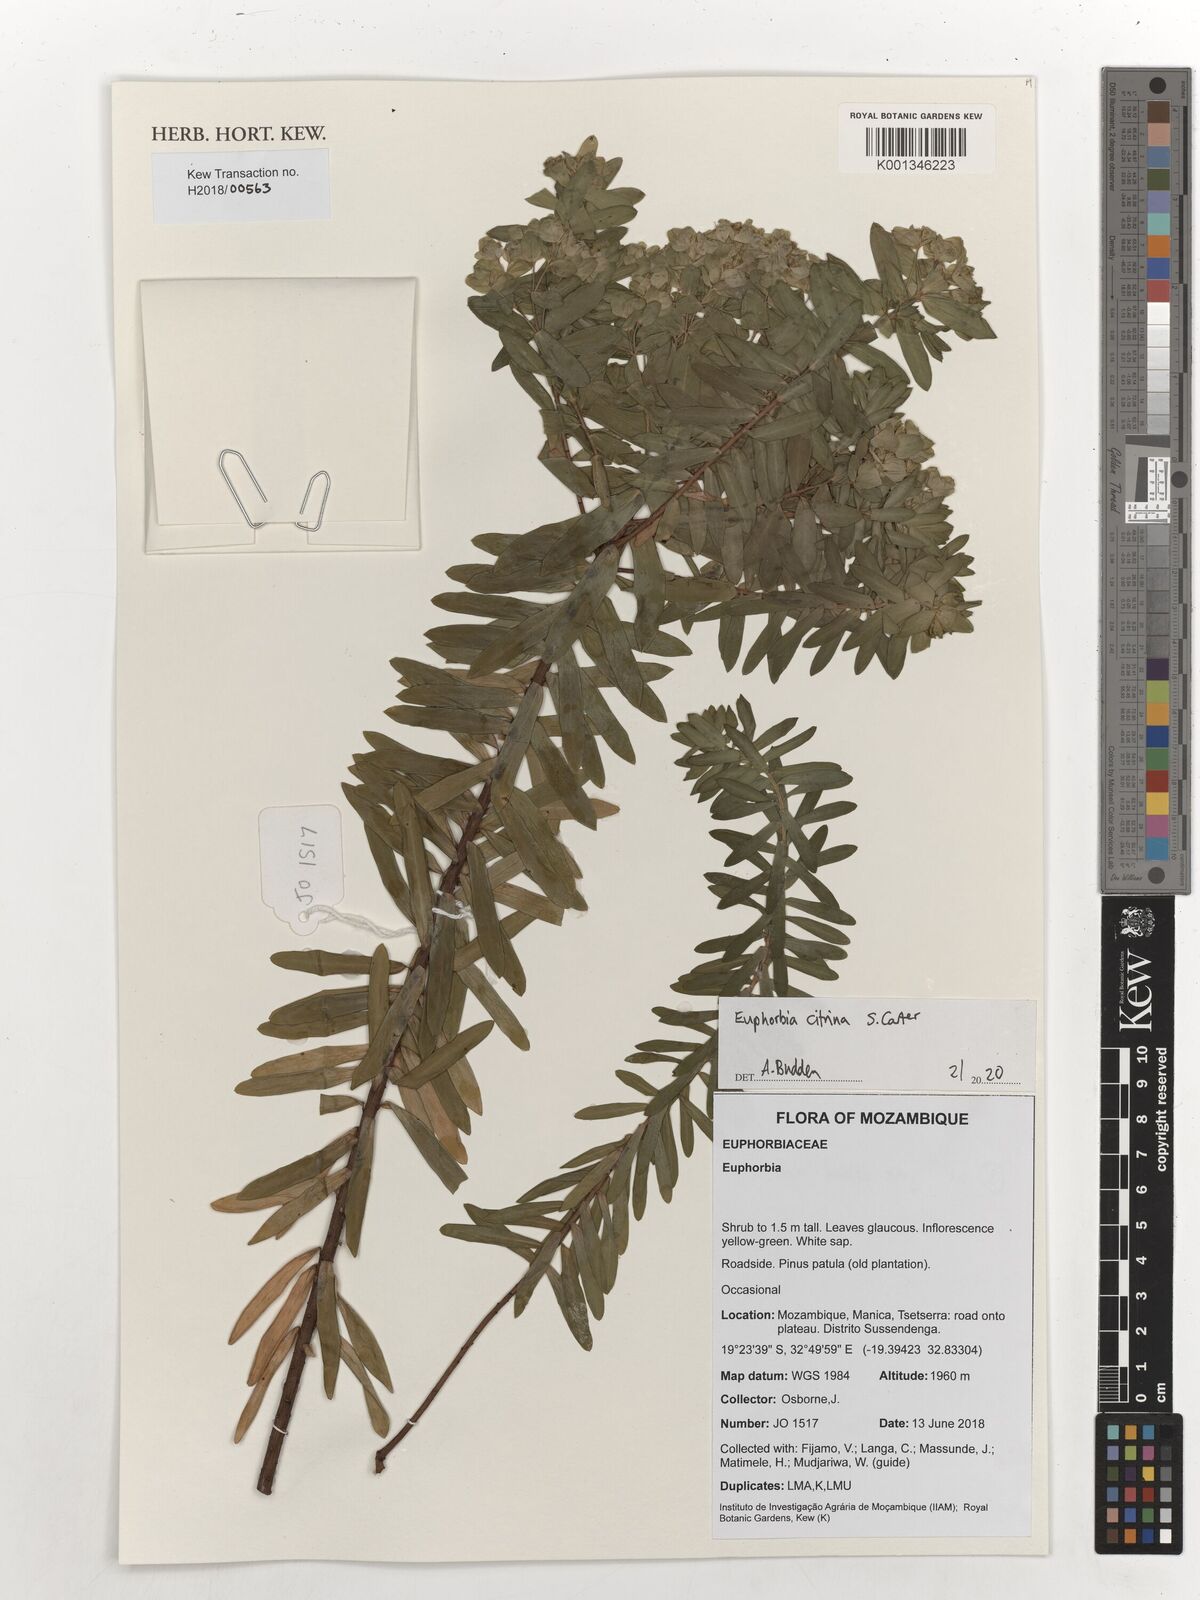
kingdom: Plantae
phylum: Tracheophyta
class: Magnoliopsida
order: Malpighiales
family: Euphorbiaceae
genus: Euphorbia
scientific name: Euphorbia citrina
